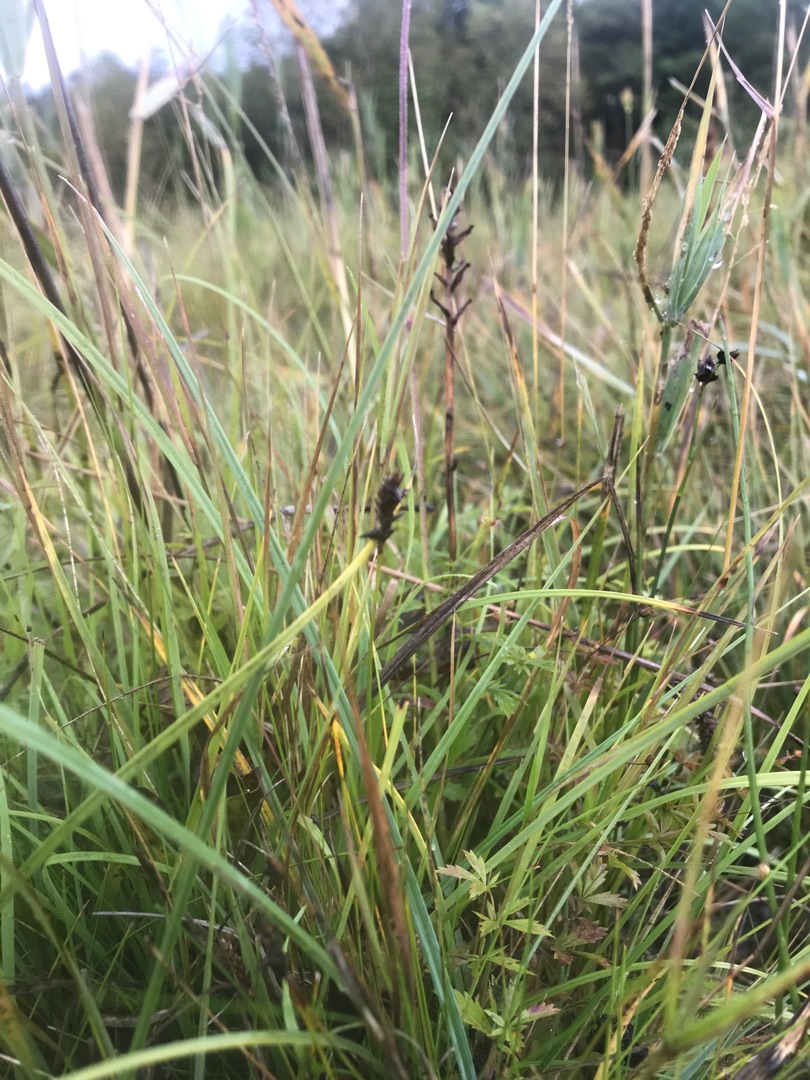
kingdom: Plantae
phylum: Tracheophyta
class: Liliopsida
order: Poales
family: Cyperaceae
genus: Carex
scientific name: Carex dioica
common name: Tvebo star
